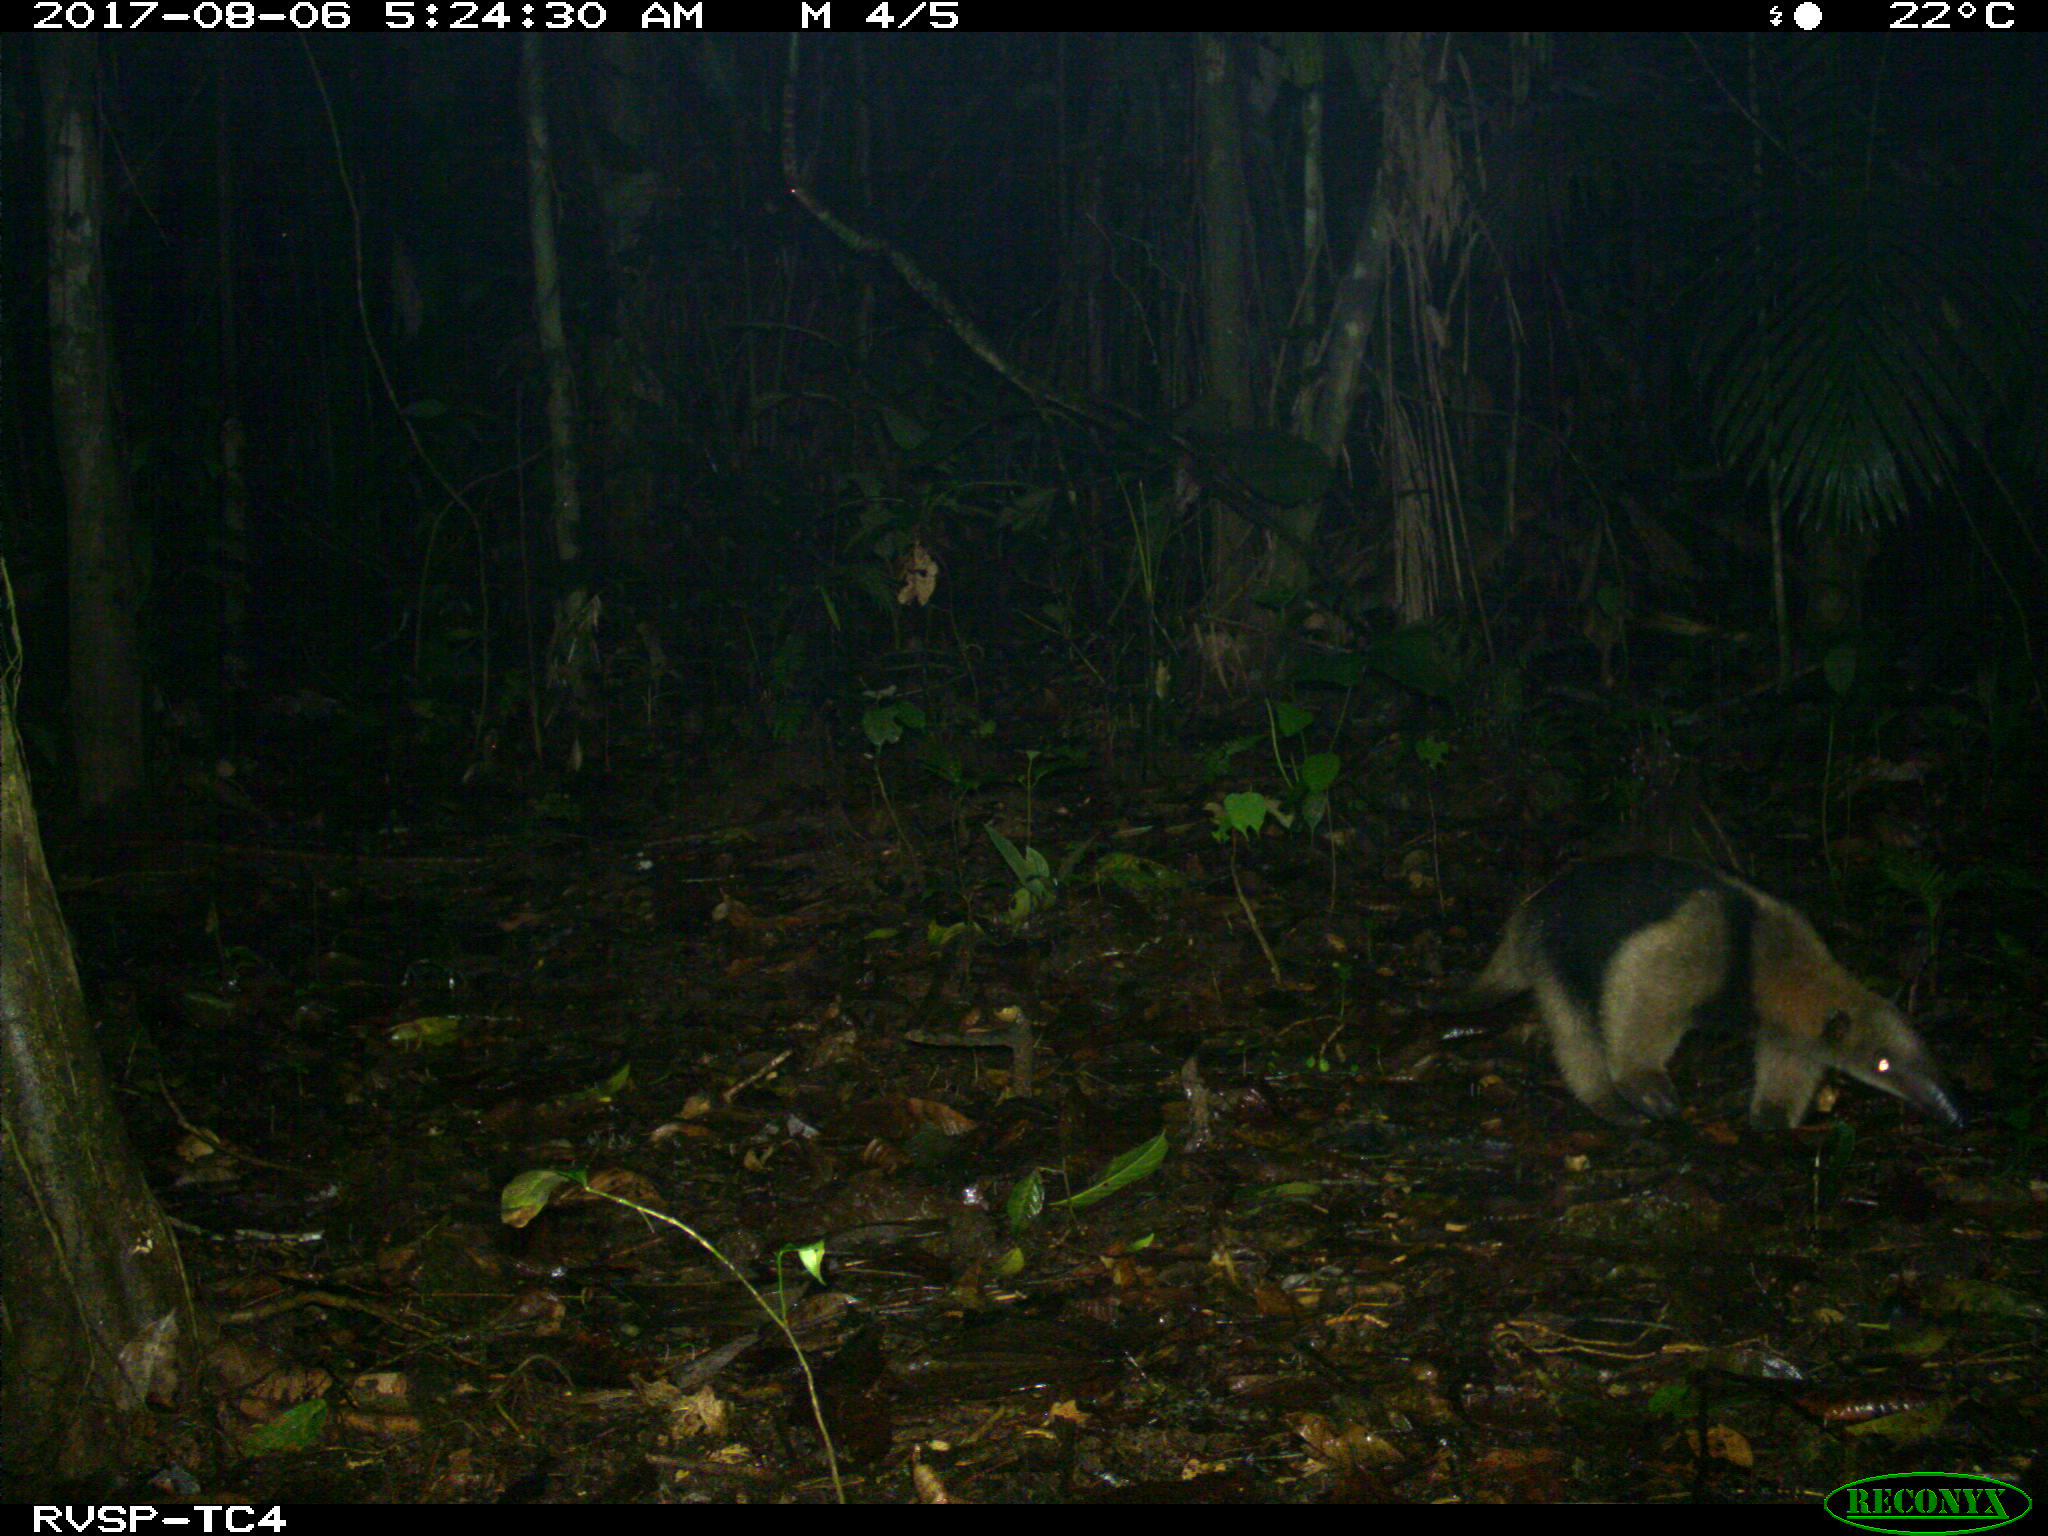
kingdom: Animalia
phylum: Chordata
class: Mammalia
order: Pilosa
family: Myrmecophagidae
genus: Tamandua
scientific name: Tamandua mexicana
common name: Northern tamandua
